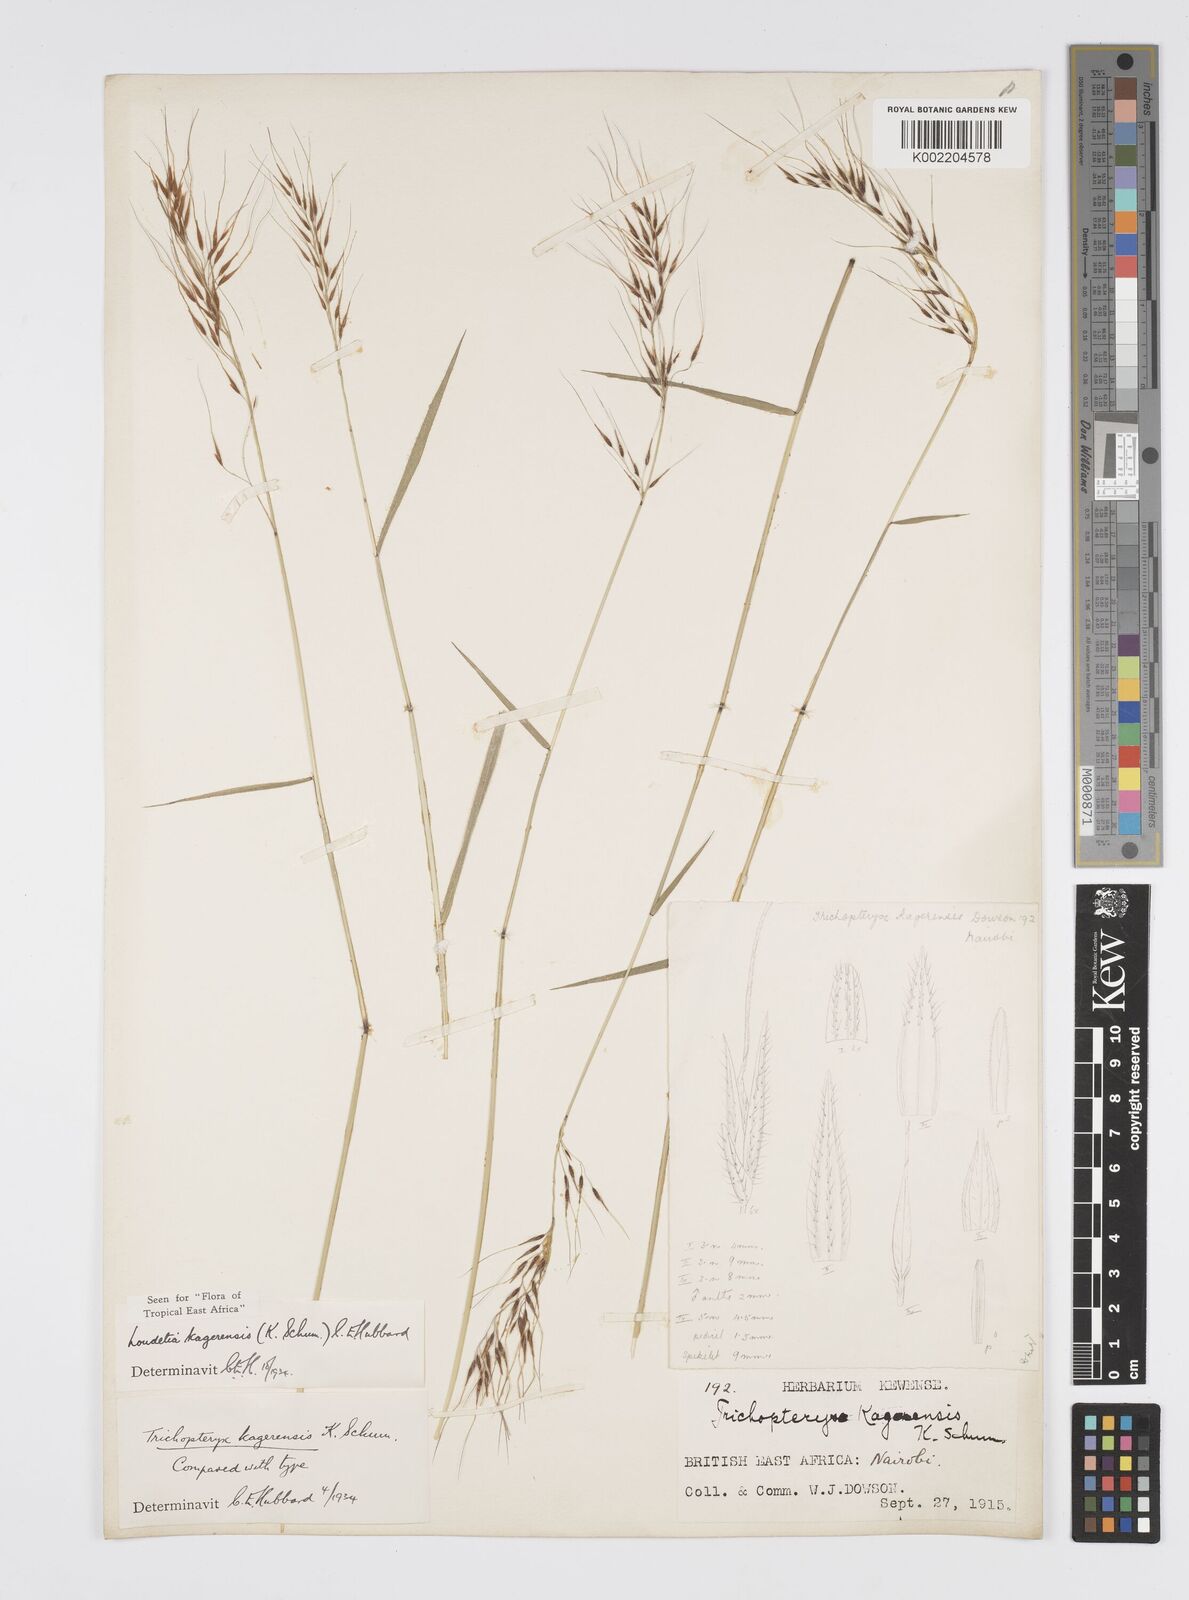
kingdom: Plantae
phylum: Tracheophyta
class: Liliopsida
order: Poales
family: Poaceae
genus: Loudetia
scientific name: Loudetia kagerensis
